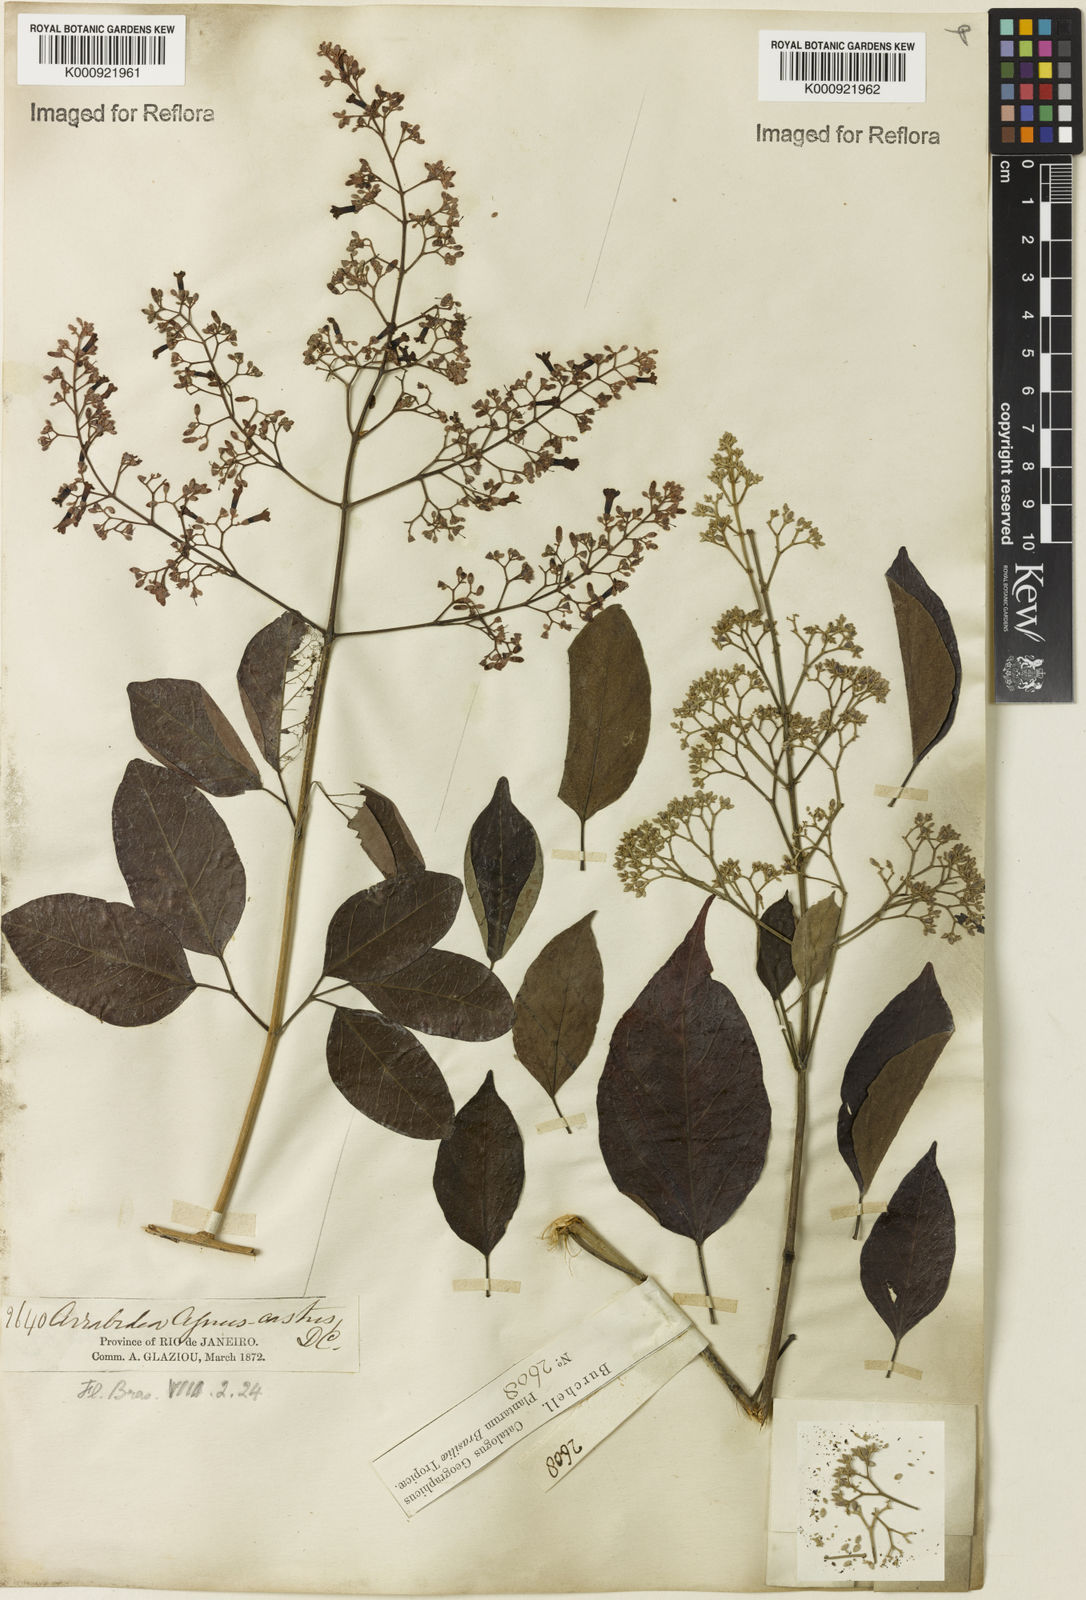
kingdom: Plantae
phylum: Tracheophyta
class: Magnoliopsida
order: Lamiales
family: Bignoniaceae
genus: Fridericia
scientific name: Fridericia rego
